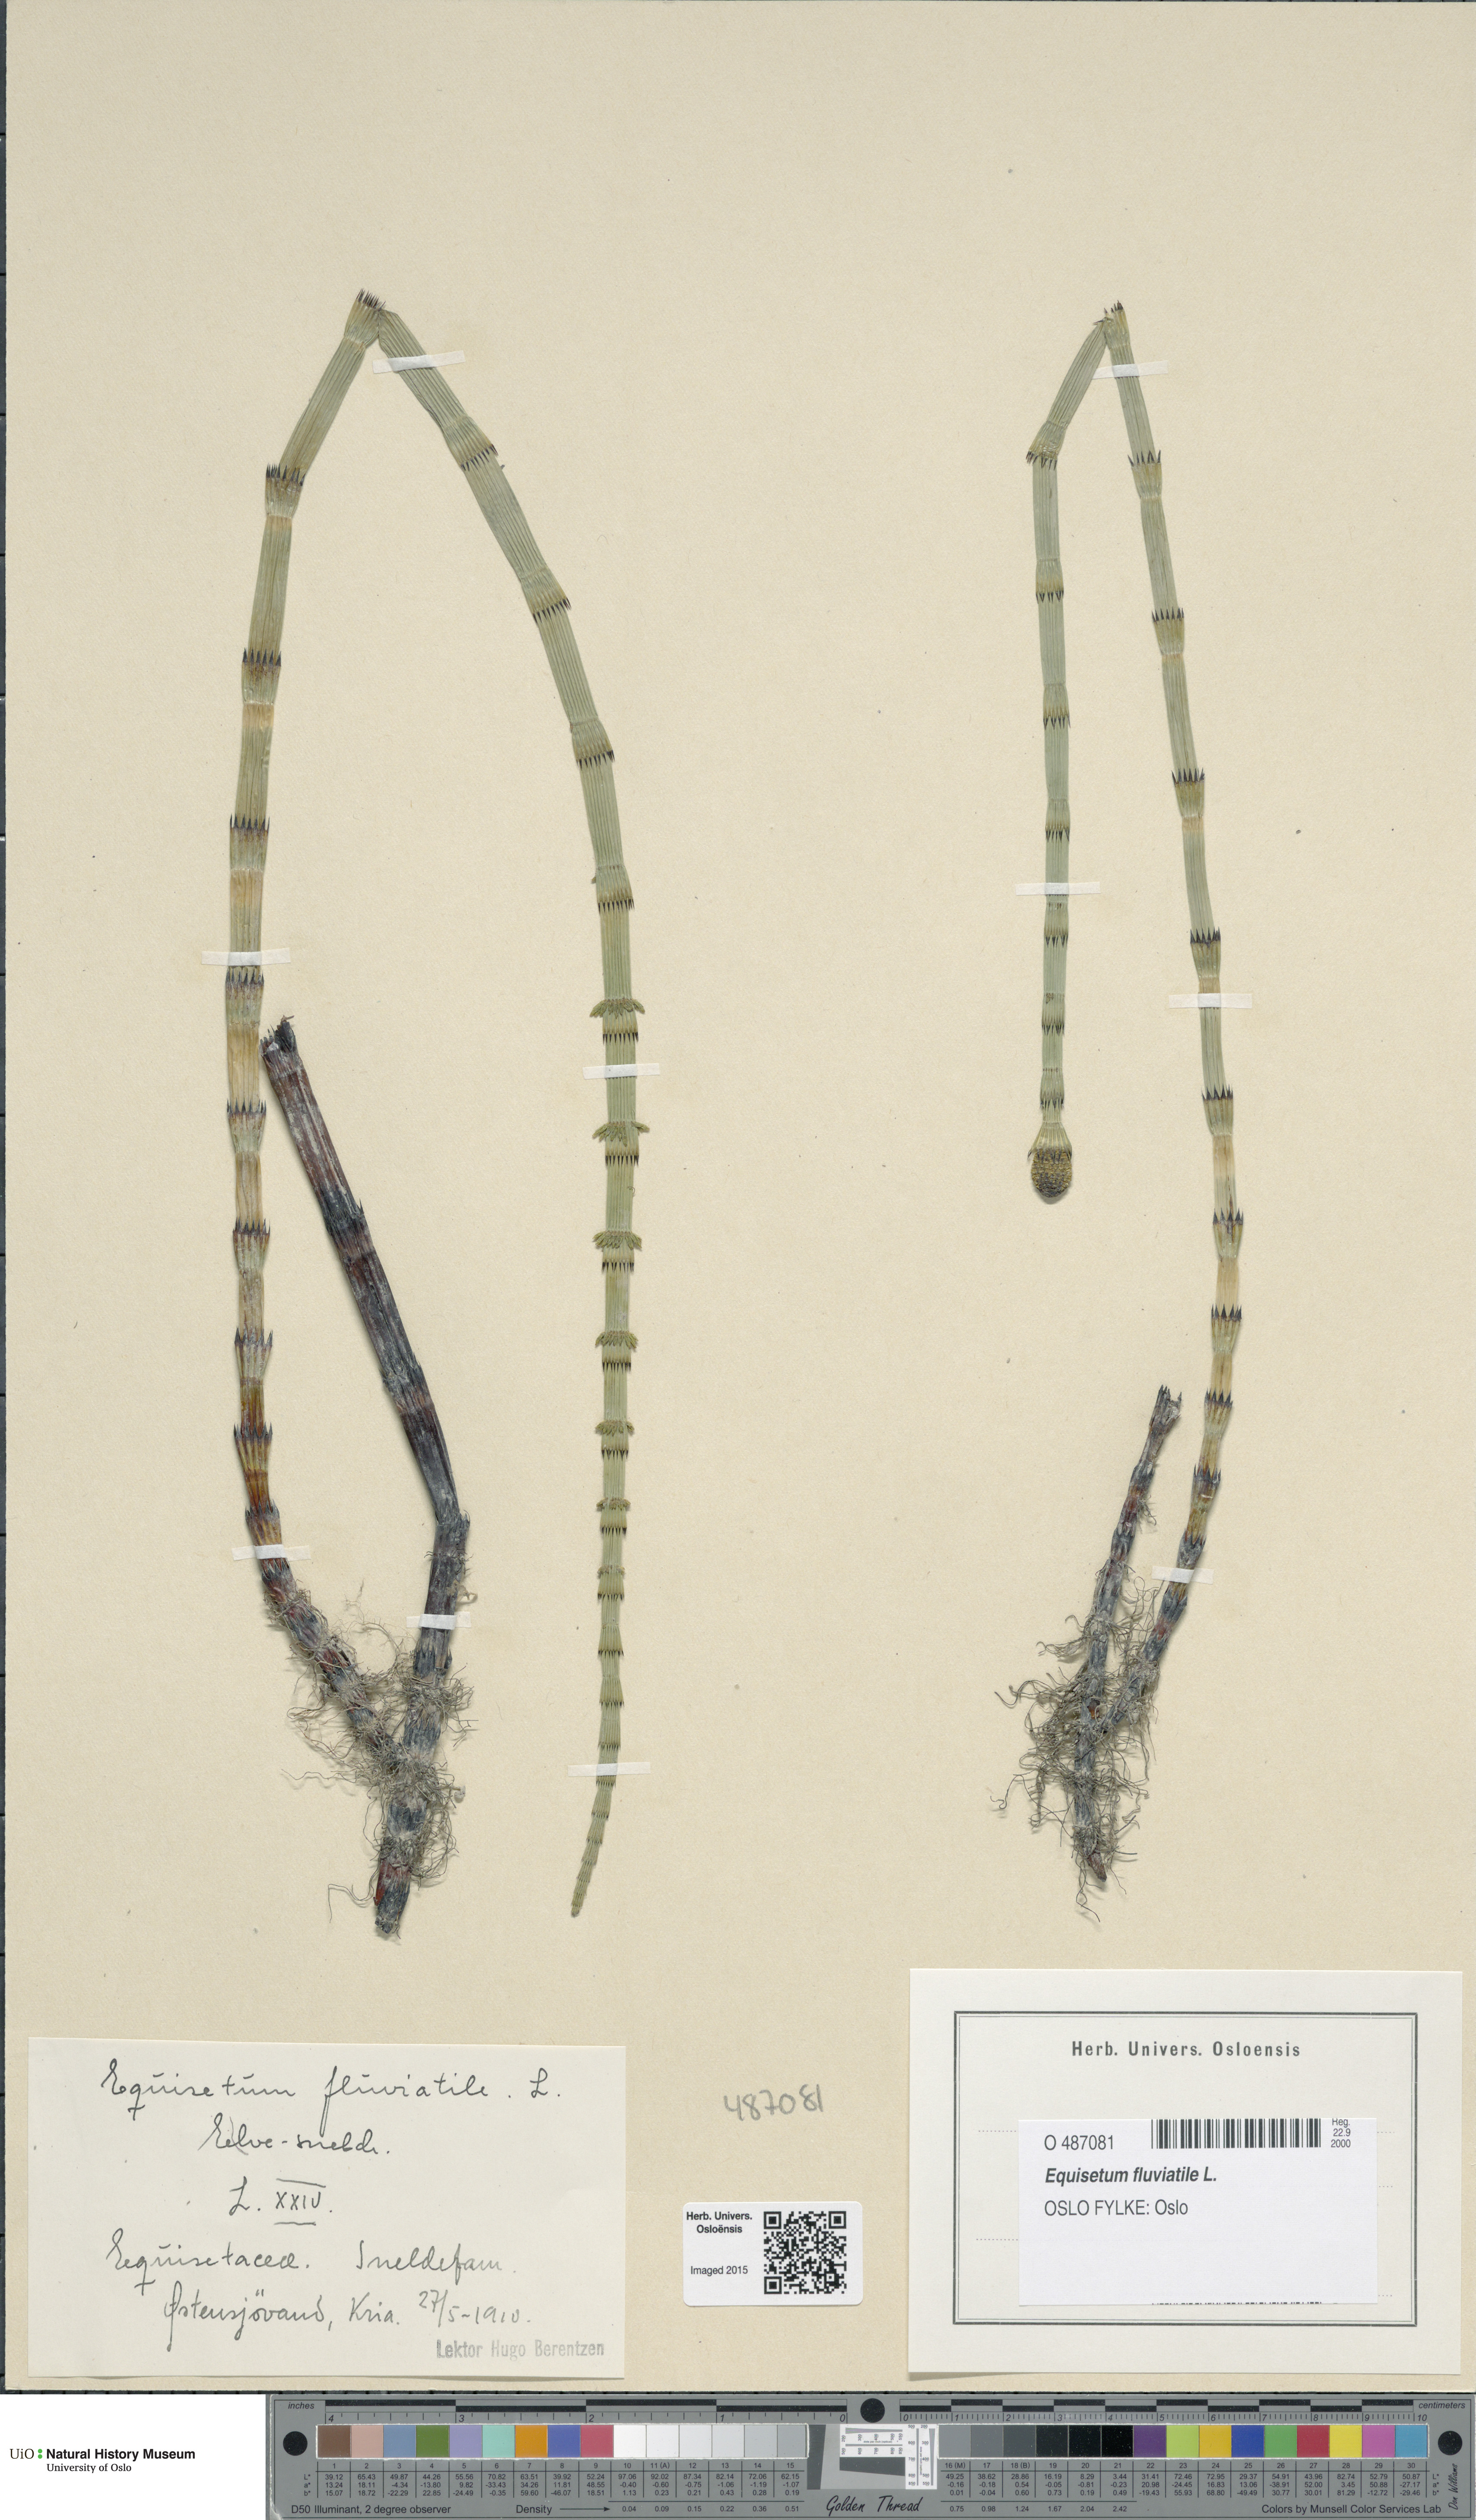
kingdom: Plantae
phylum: Tracheophyta
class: Polypodiopsida
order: Equisetales
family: Equisetaceae
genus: Equisetum
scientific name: Equisetum fluviatile
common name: Water horsetail
